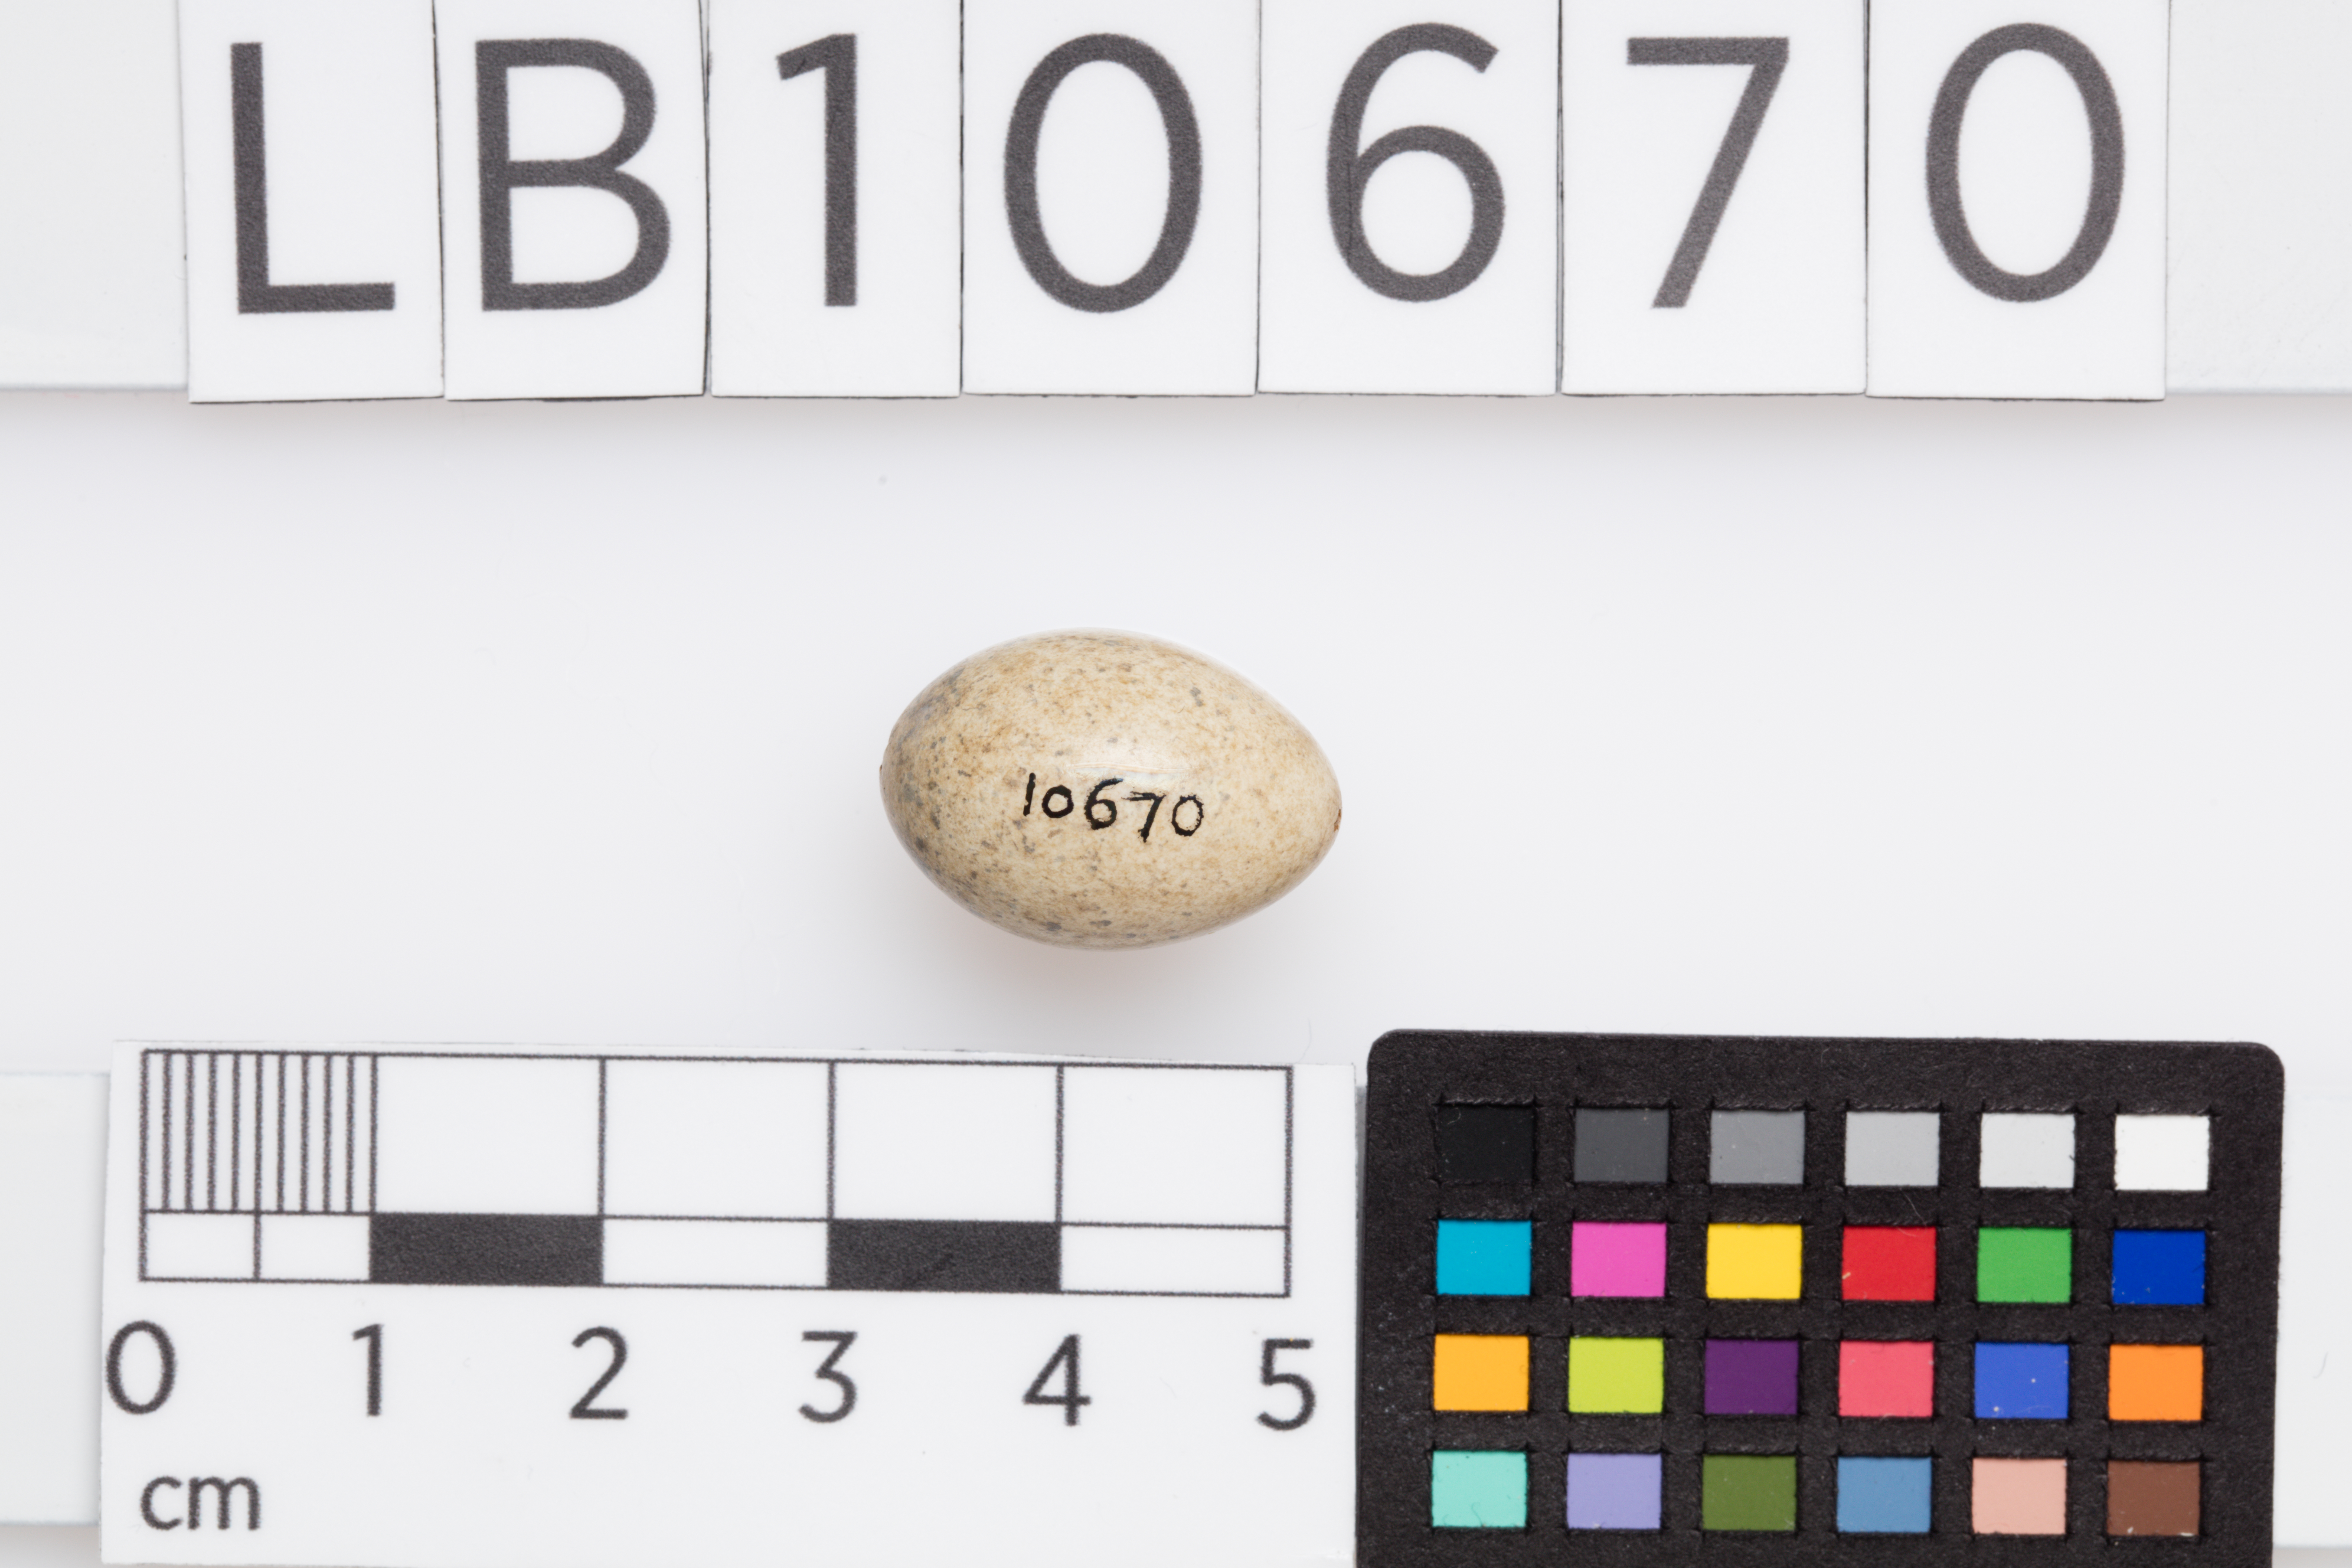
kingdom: Animalia
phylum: Chordata
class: Aves
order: Passeriformes
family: Sylviidae
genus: Sylvia
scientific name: Sylvia communis
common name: Common whitethroat
